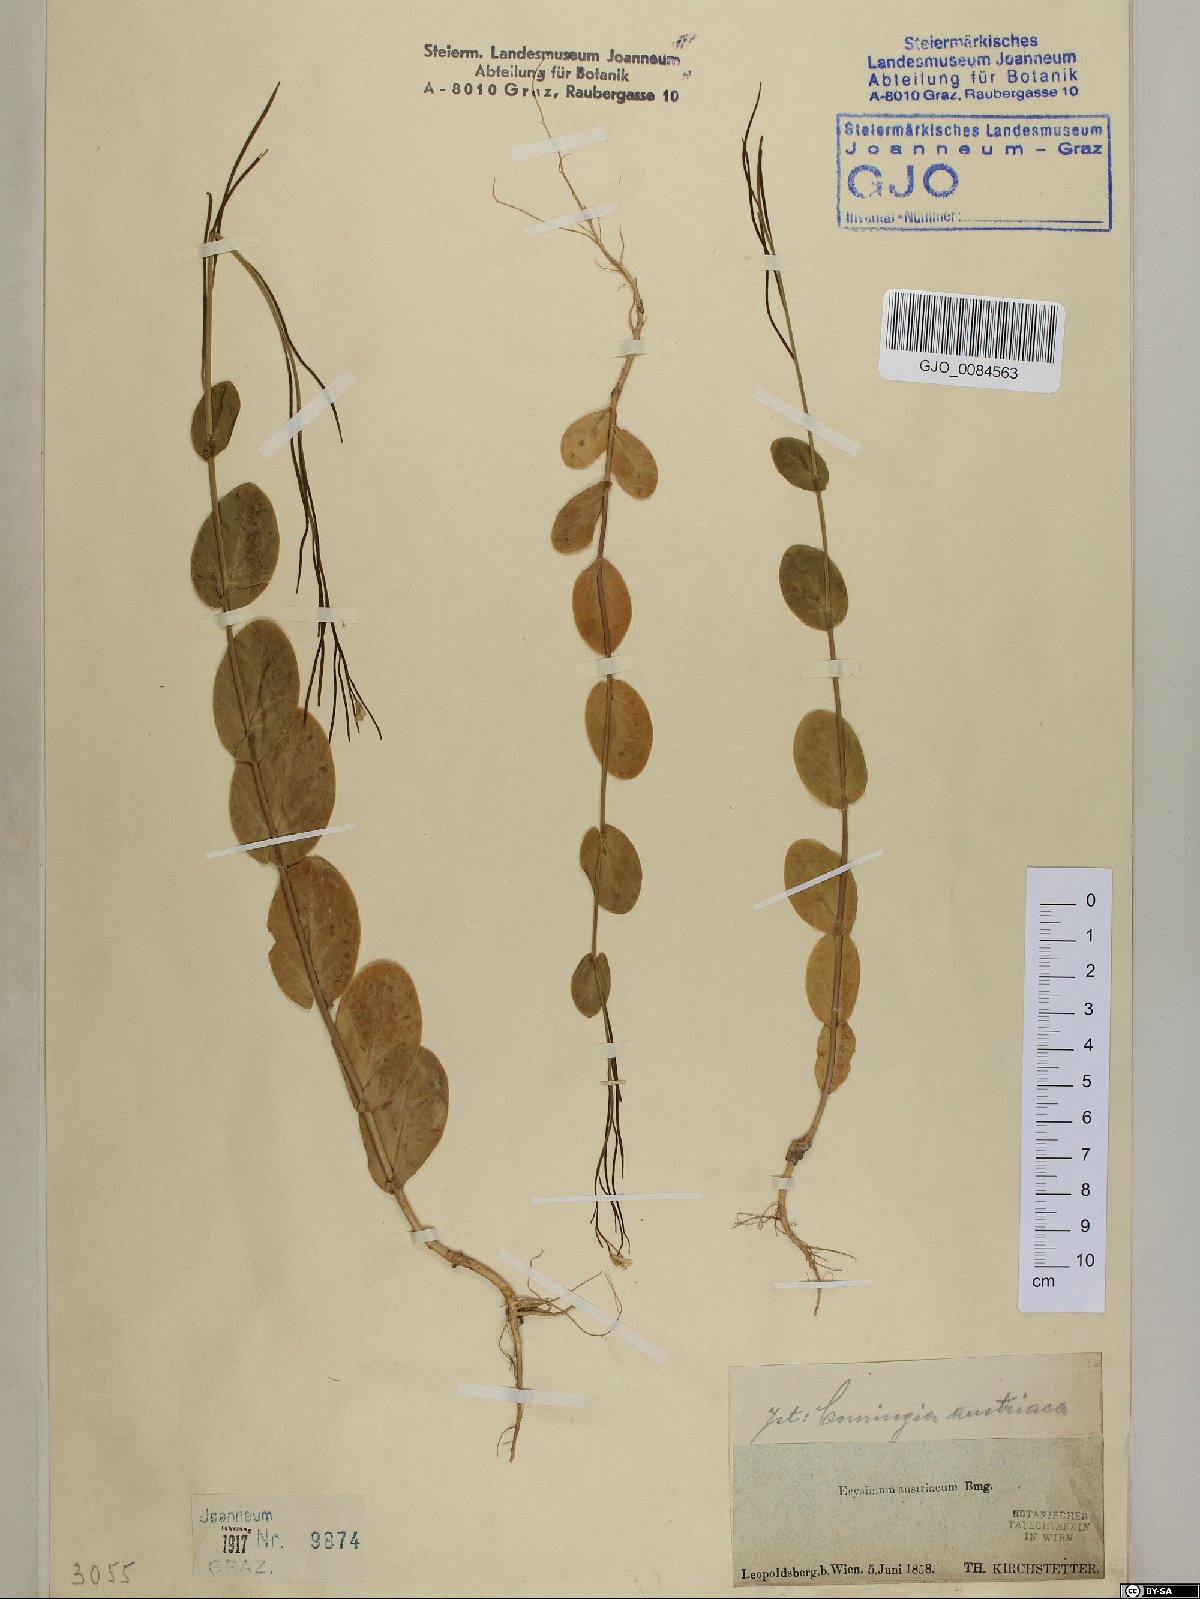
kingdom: Plantae
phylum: Tracheophyta
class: Magnoliopsida
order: Brassicales
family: Brassicaceae
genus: Conringia
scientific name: Conringia austriaca
